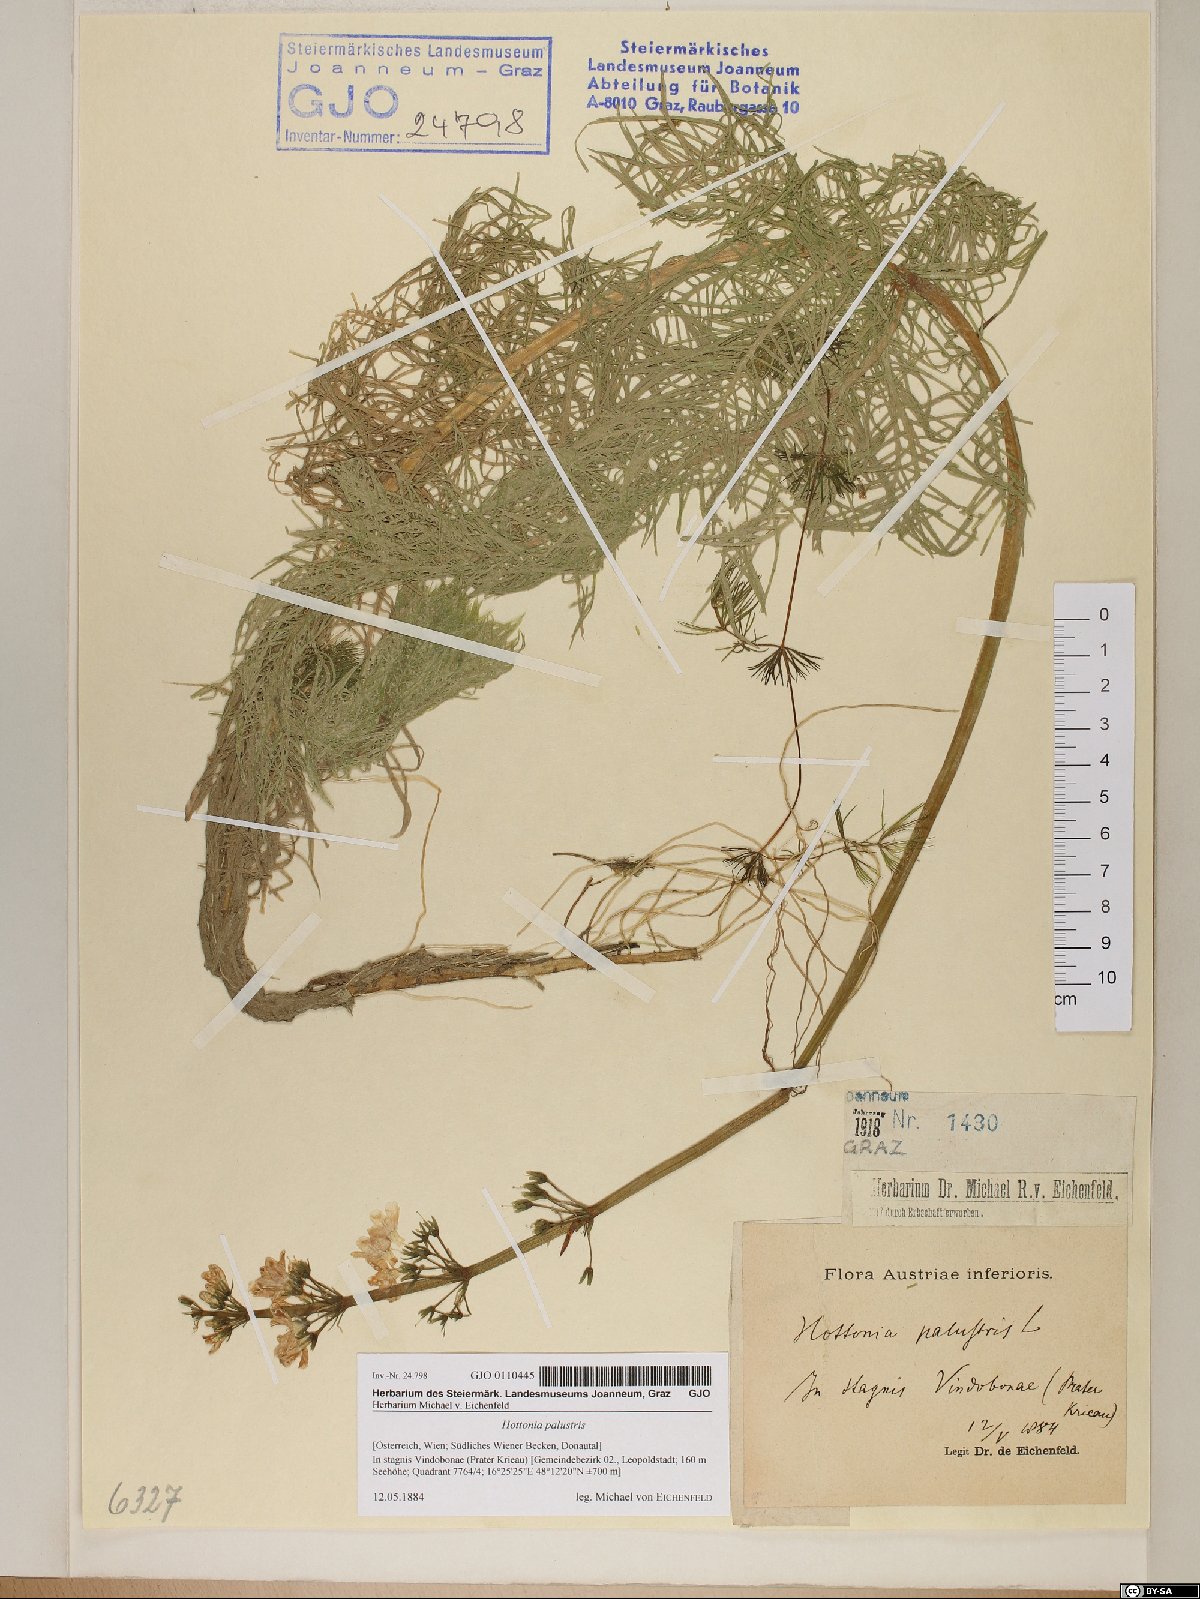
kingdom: Plantae
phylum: Tracheophyta
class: Magnoliopsida
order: Ericales
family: Primulaceae
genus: Hottonia
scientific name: Hottonia palustris
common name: Water-violet
